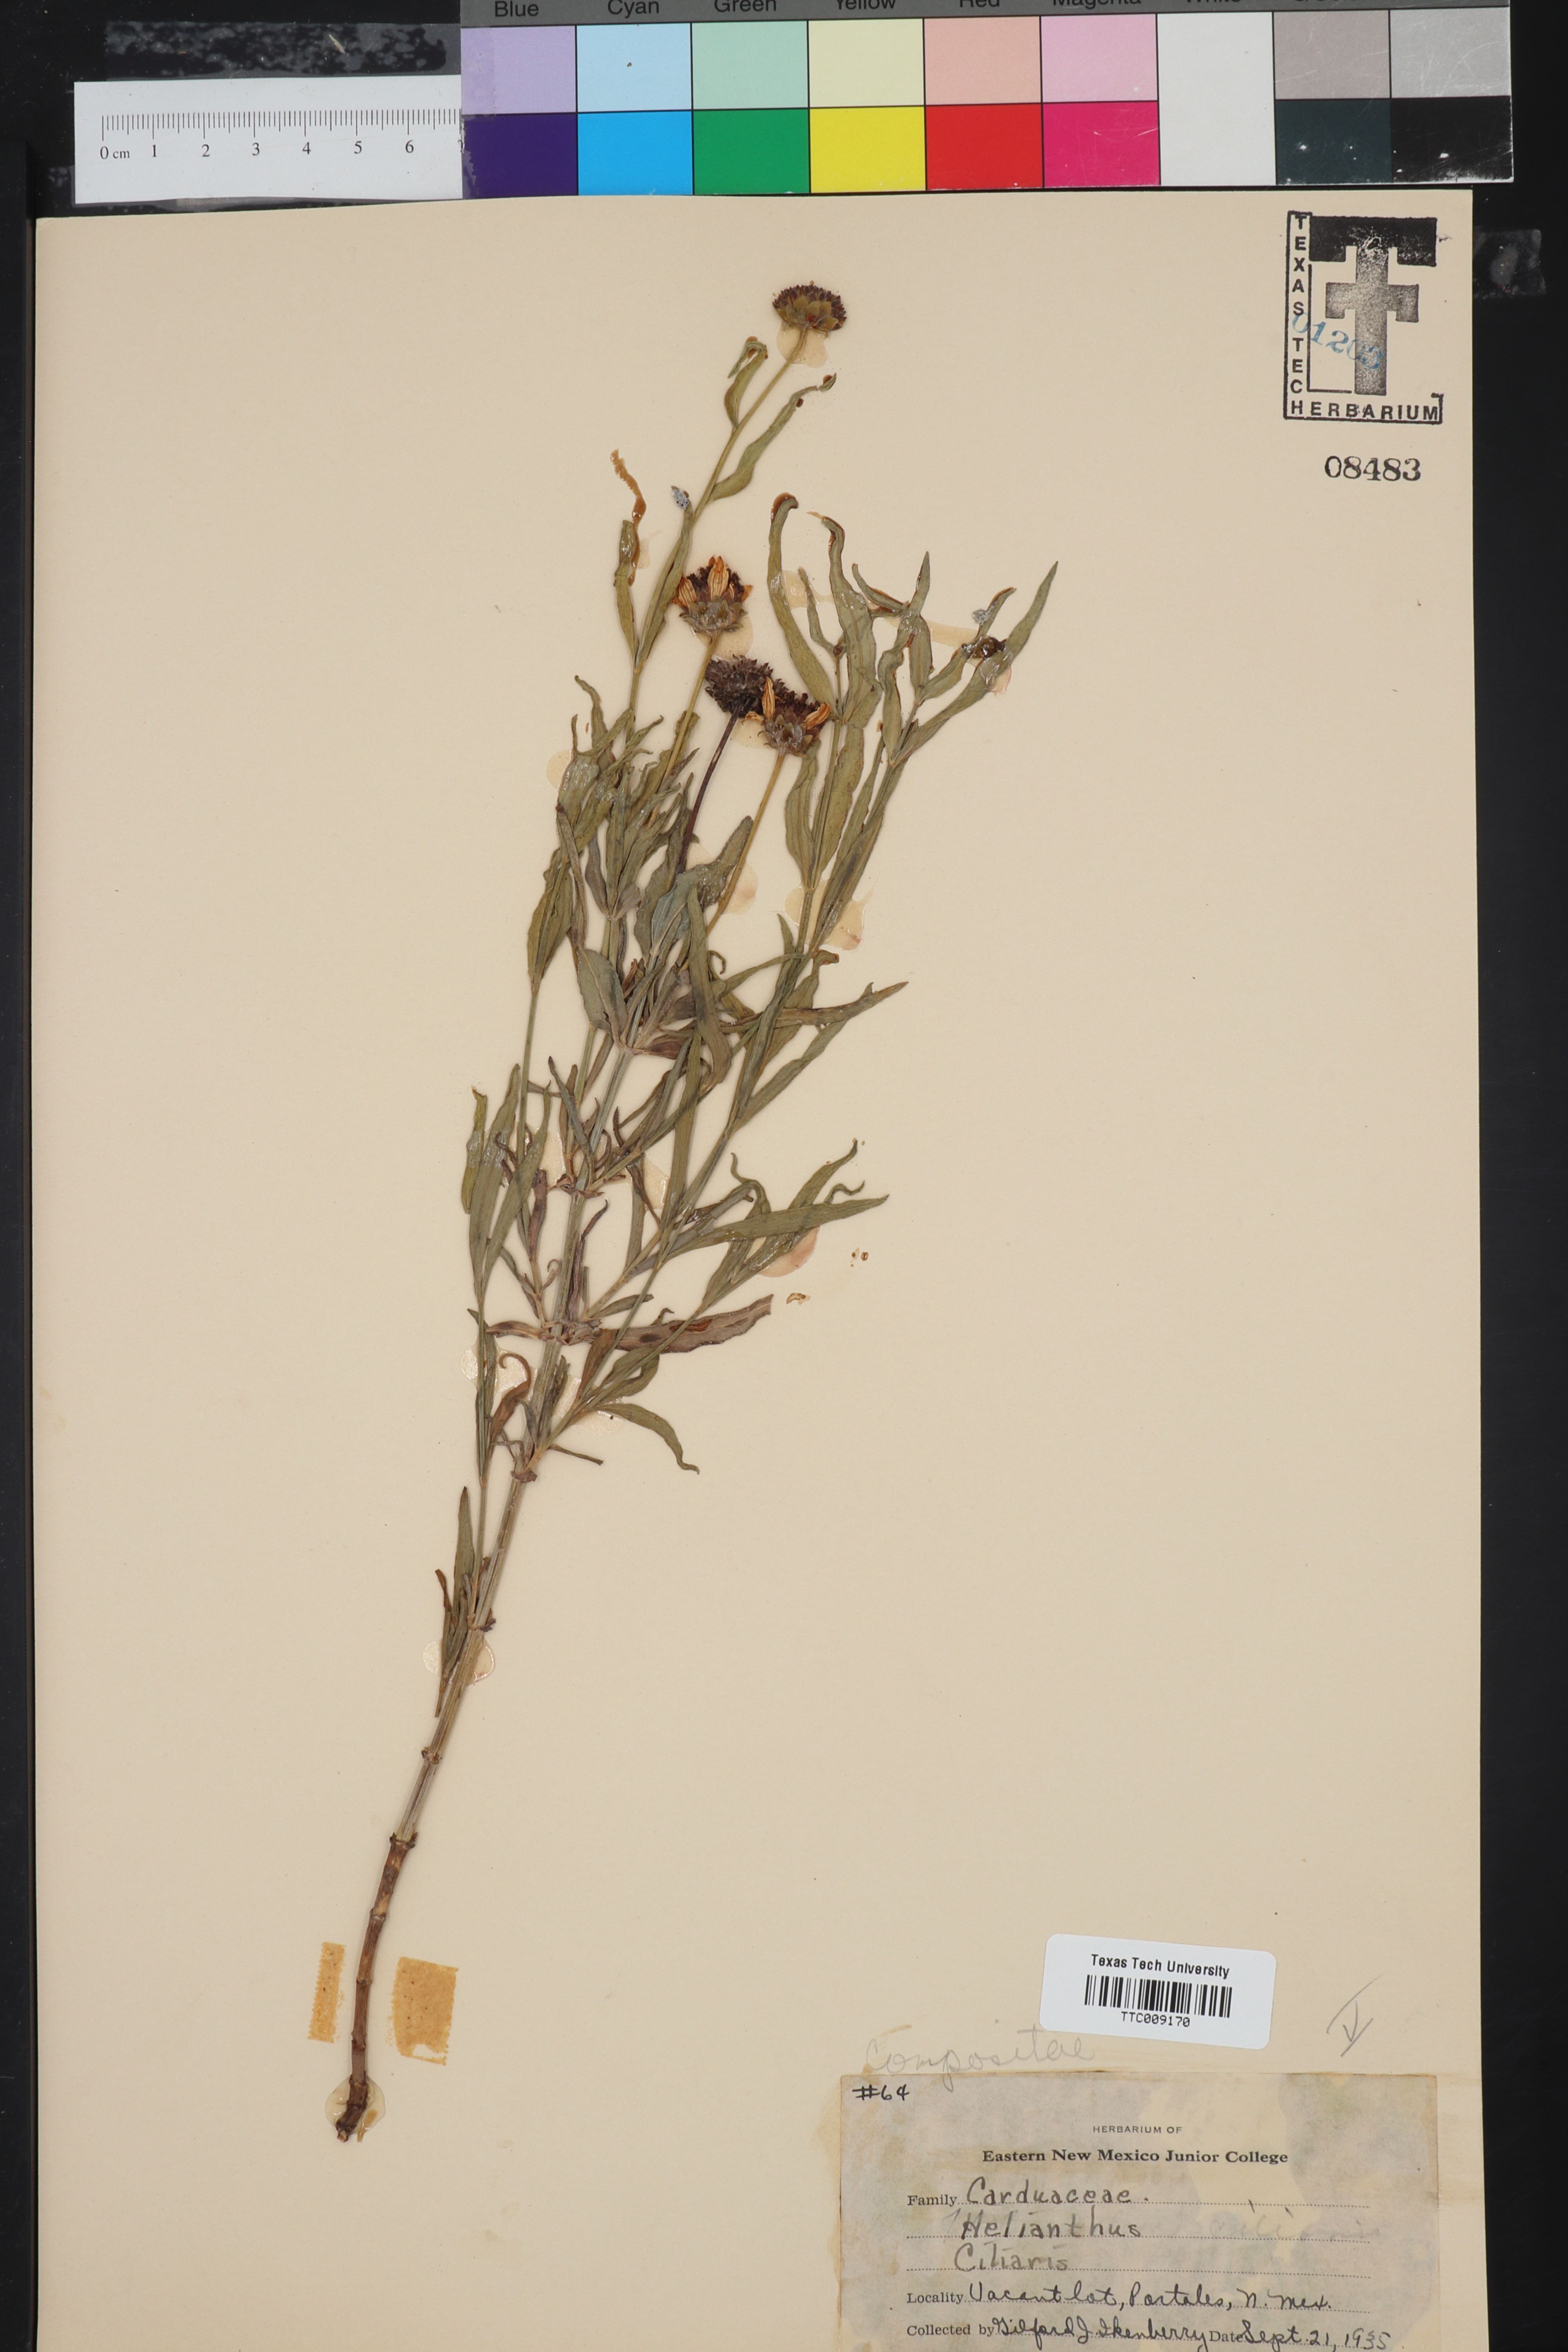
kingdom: Plantae
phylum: Tracheophyta
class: Magnoliopsida
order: Asterales
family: Asteraceae
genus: Helianthus
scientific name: Helianthus ciliaris
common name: Texas blueweed
